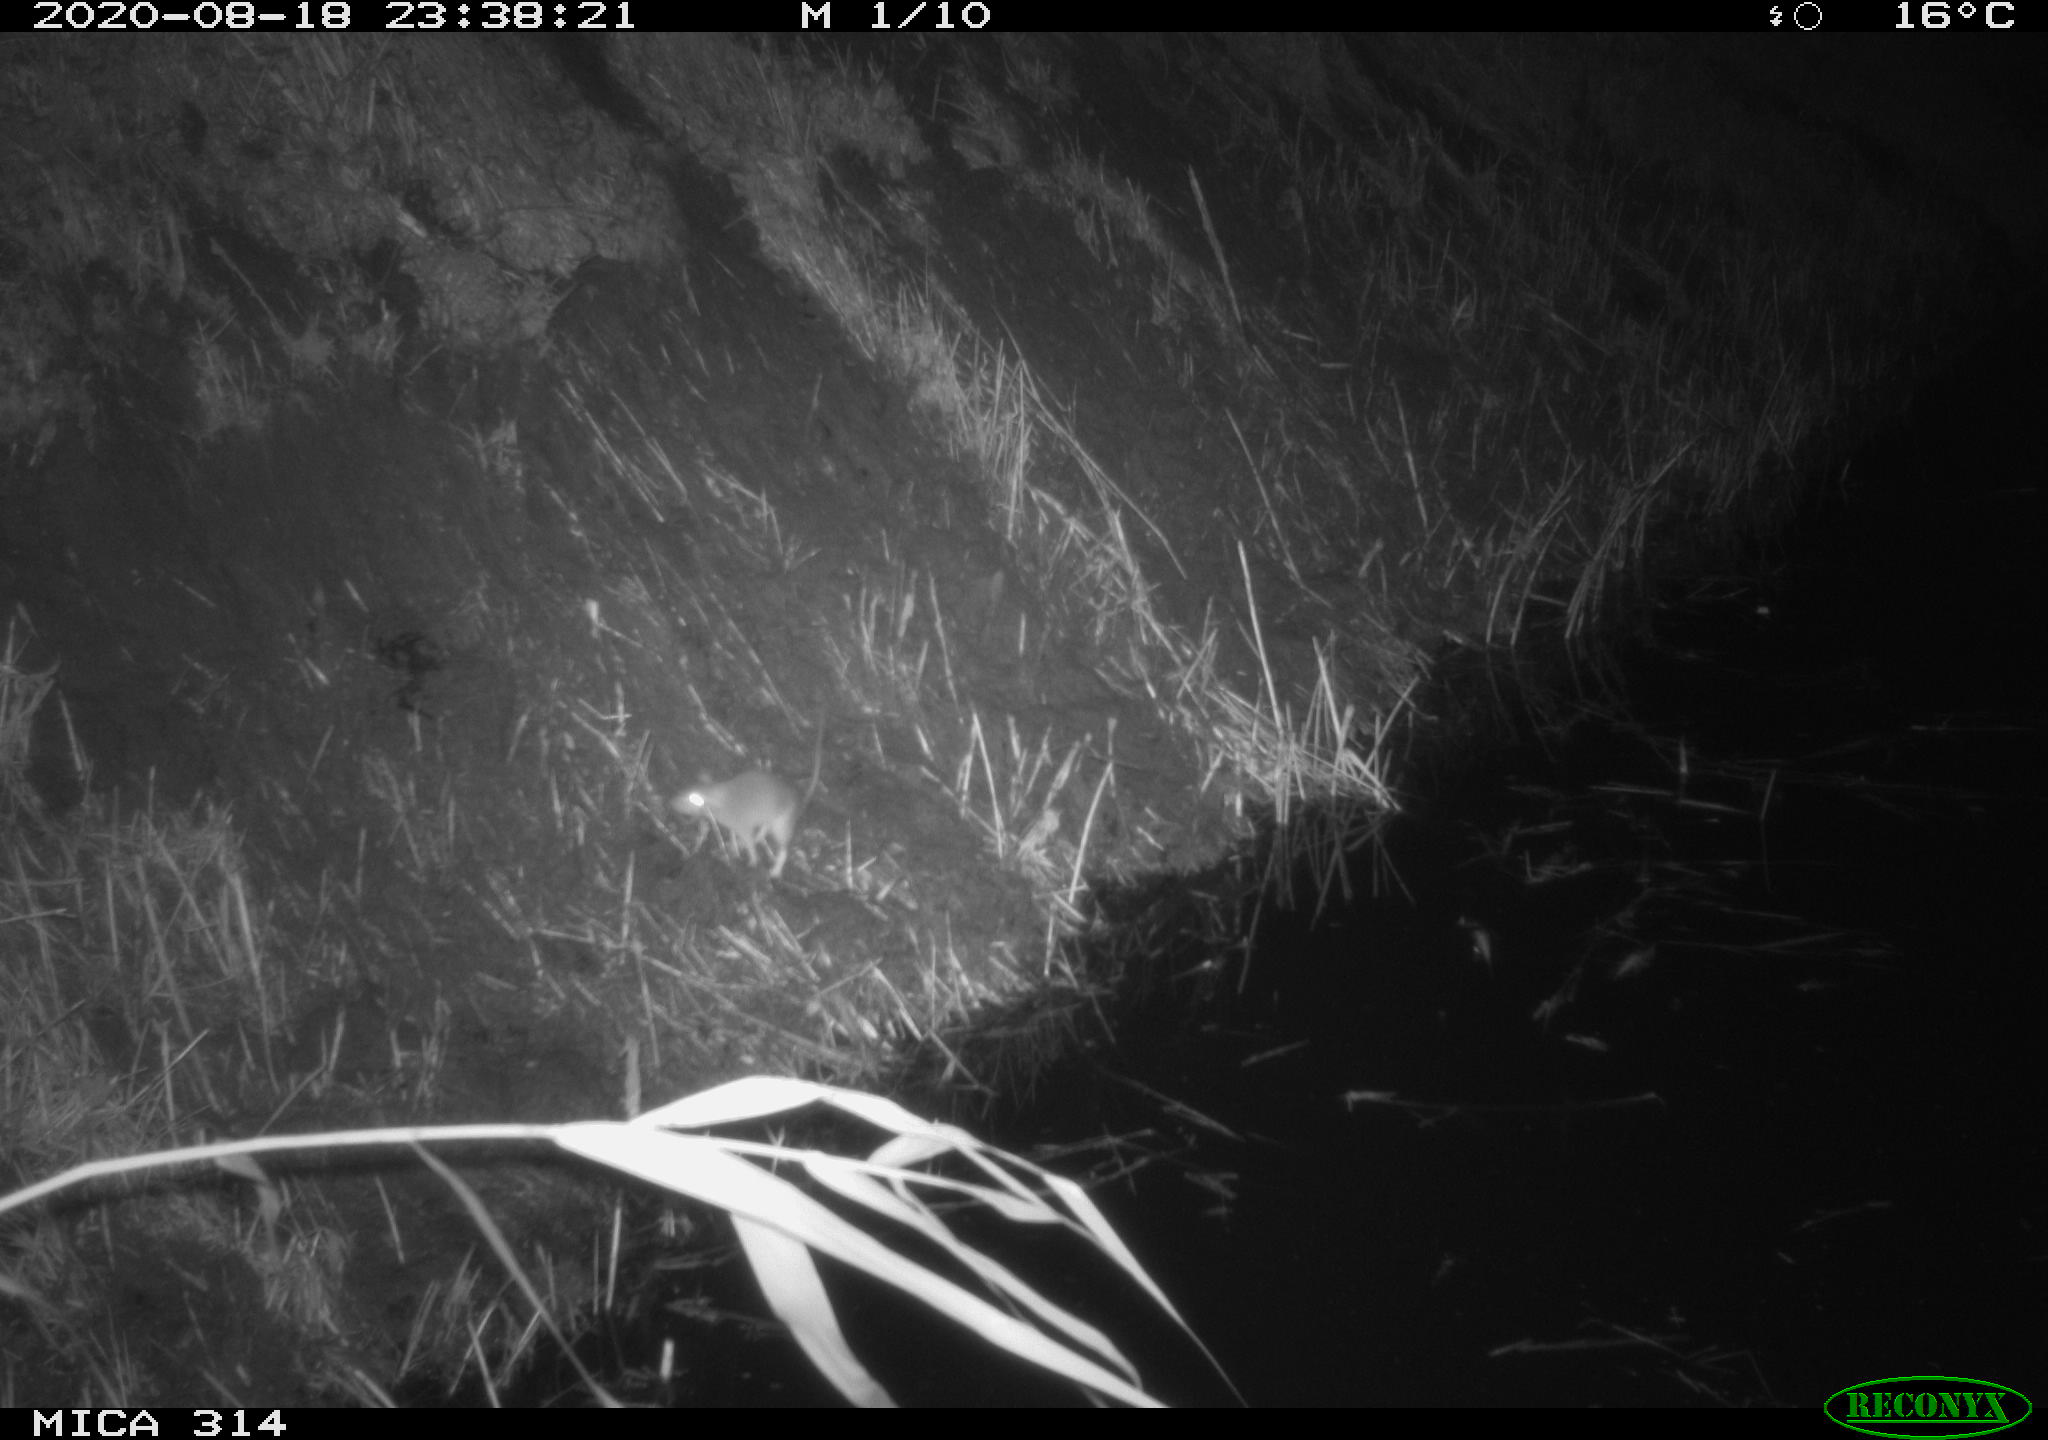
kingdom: Animalia
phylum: Chordata
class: Mammalia
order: Rodentia
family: Muridae
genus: Rattus
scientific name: Rattus norvegicus
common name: Brown rat
